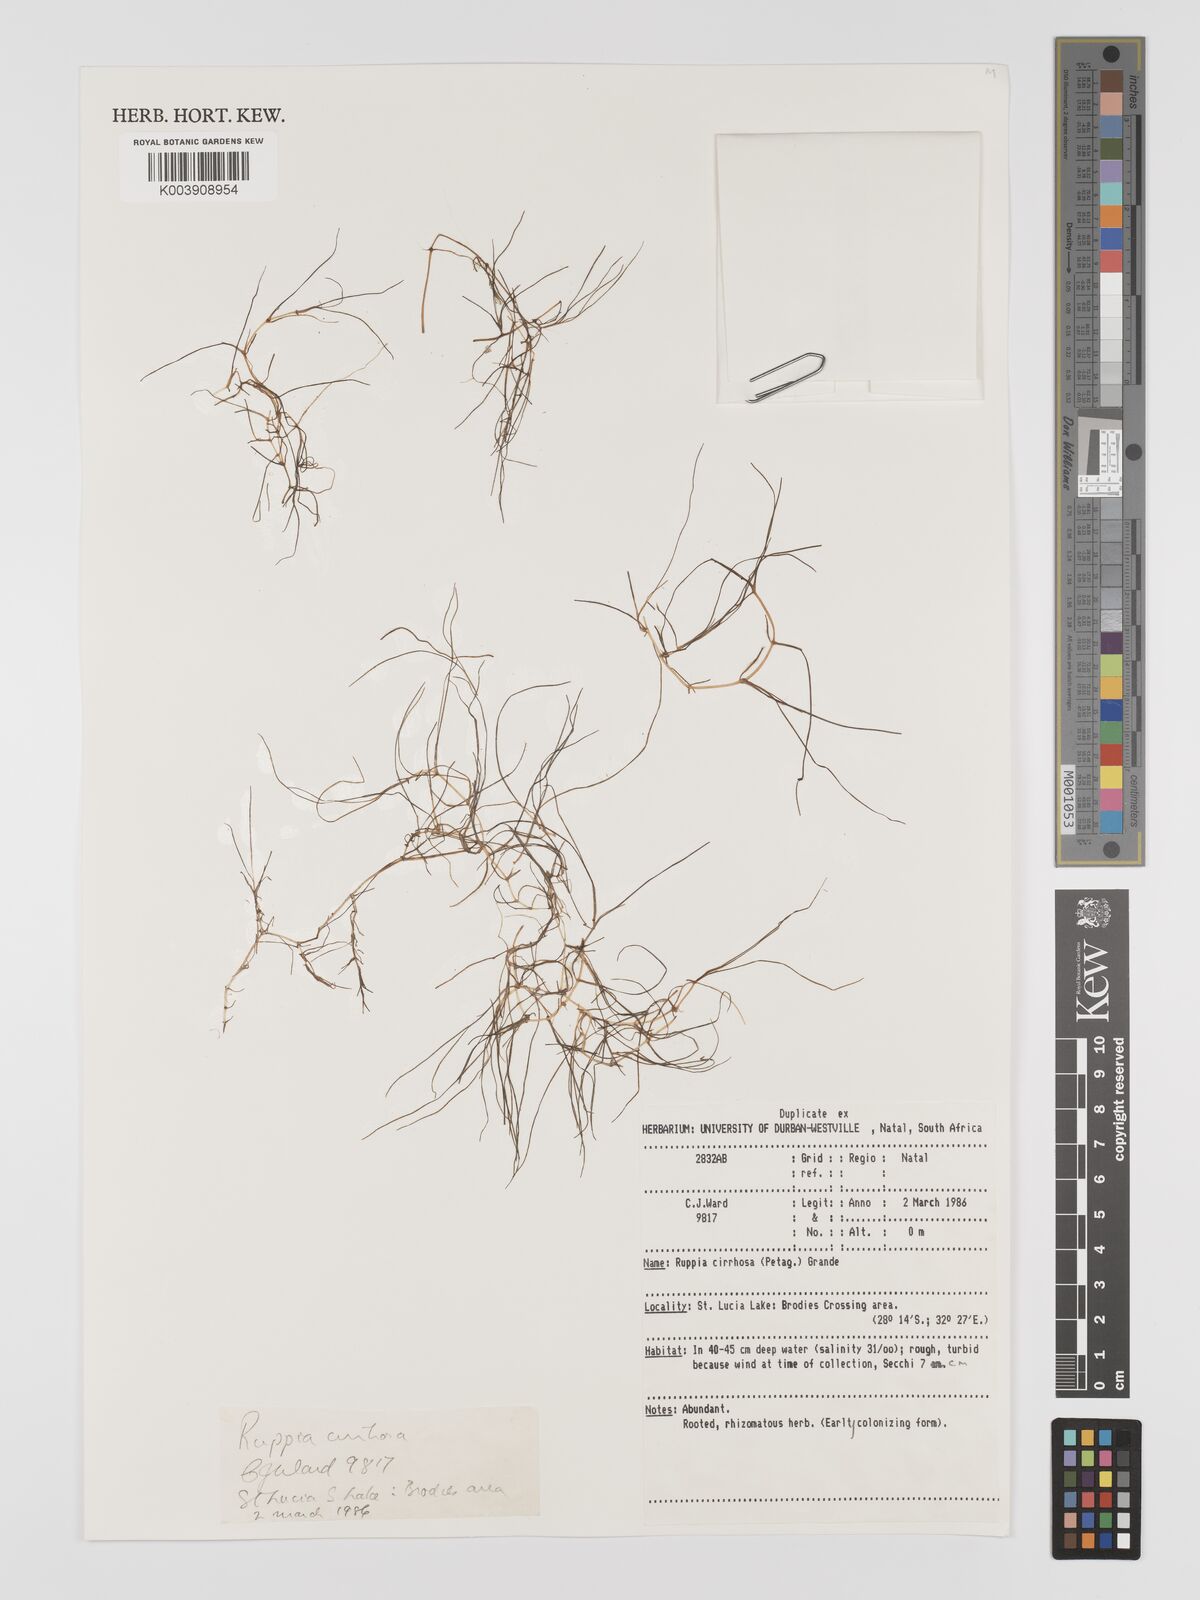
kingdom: Plantae
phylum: Tracheophyta
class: Liliopsida
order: Alismatales
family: Ruppiaceae
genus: Ruppia
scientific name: Ruppia cirrhosa
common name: Spiral tasselweed
